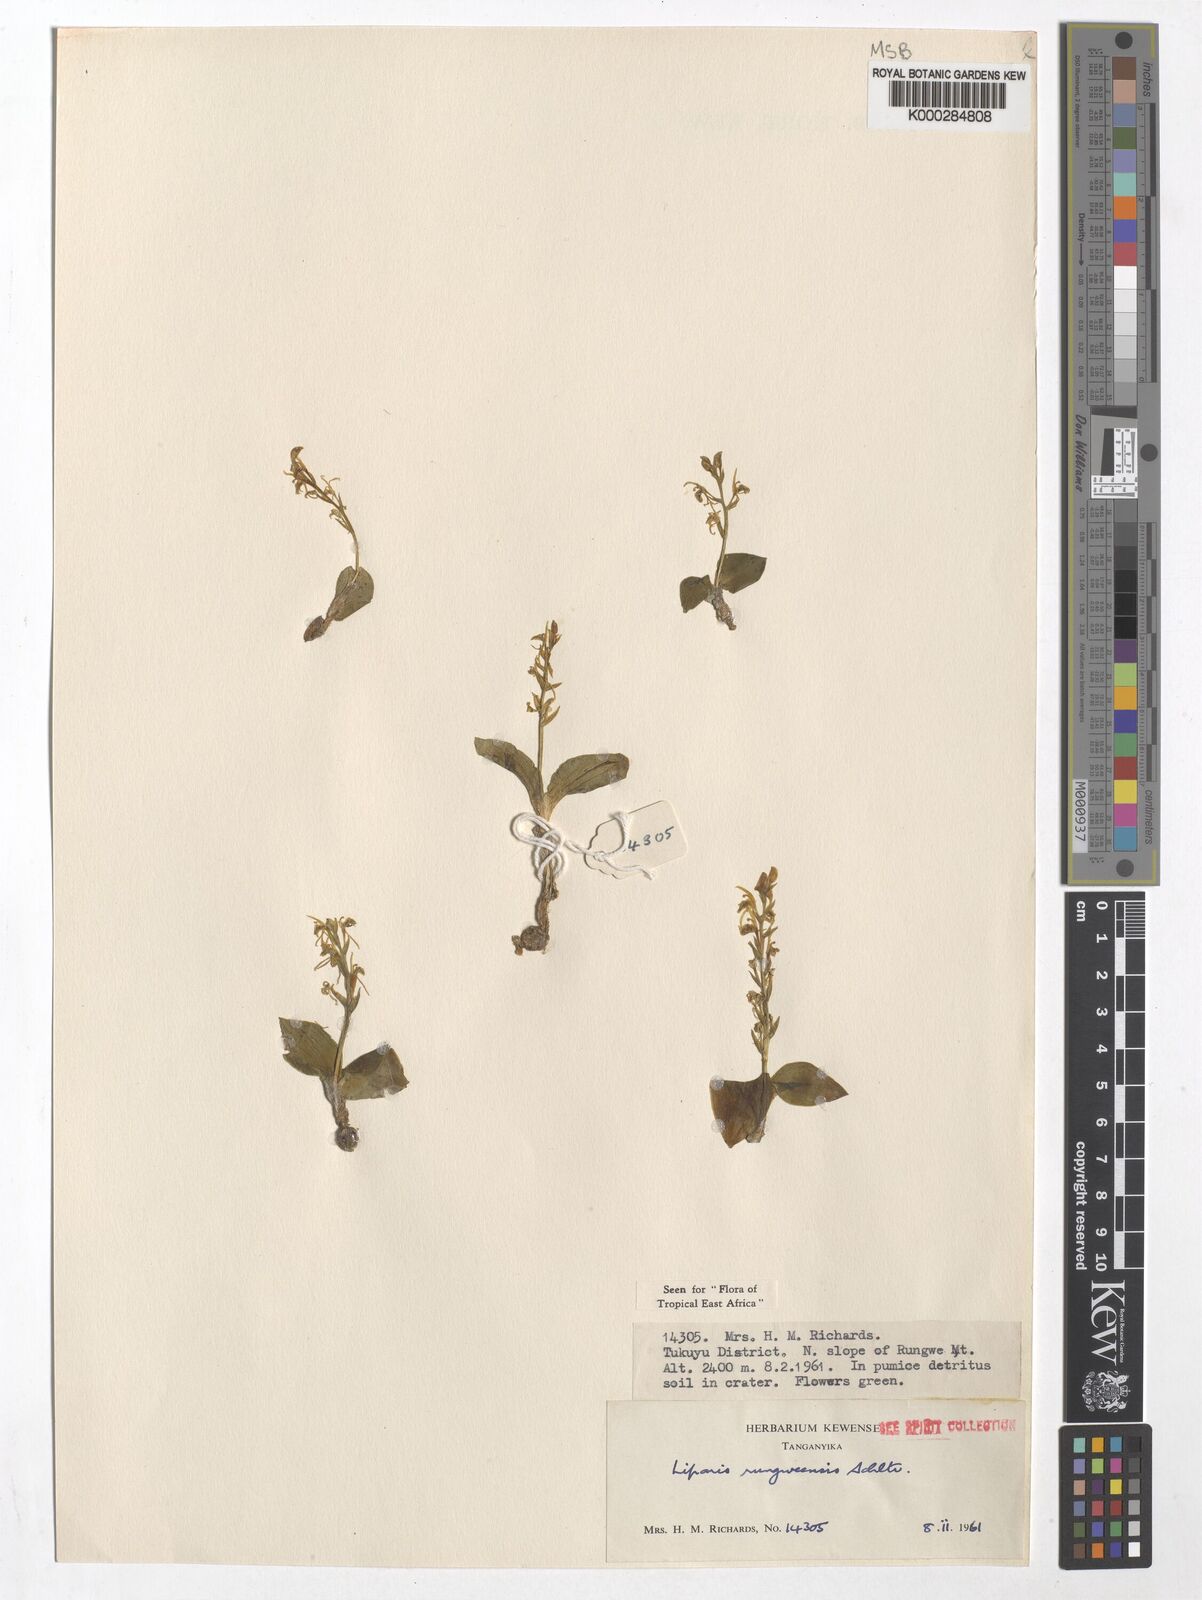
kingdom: Plantae
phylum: Tracheophyta
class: Liliopsida
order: Asparagales
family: Orchidaceae
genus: Liparis
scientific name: Liparis rungweensis
